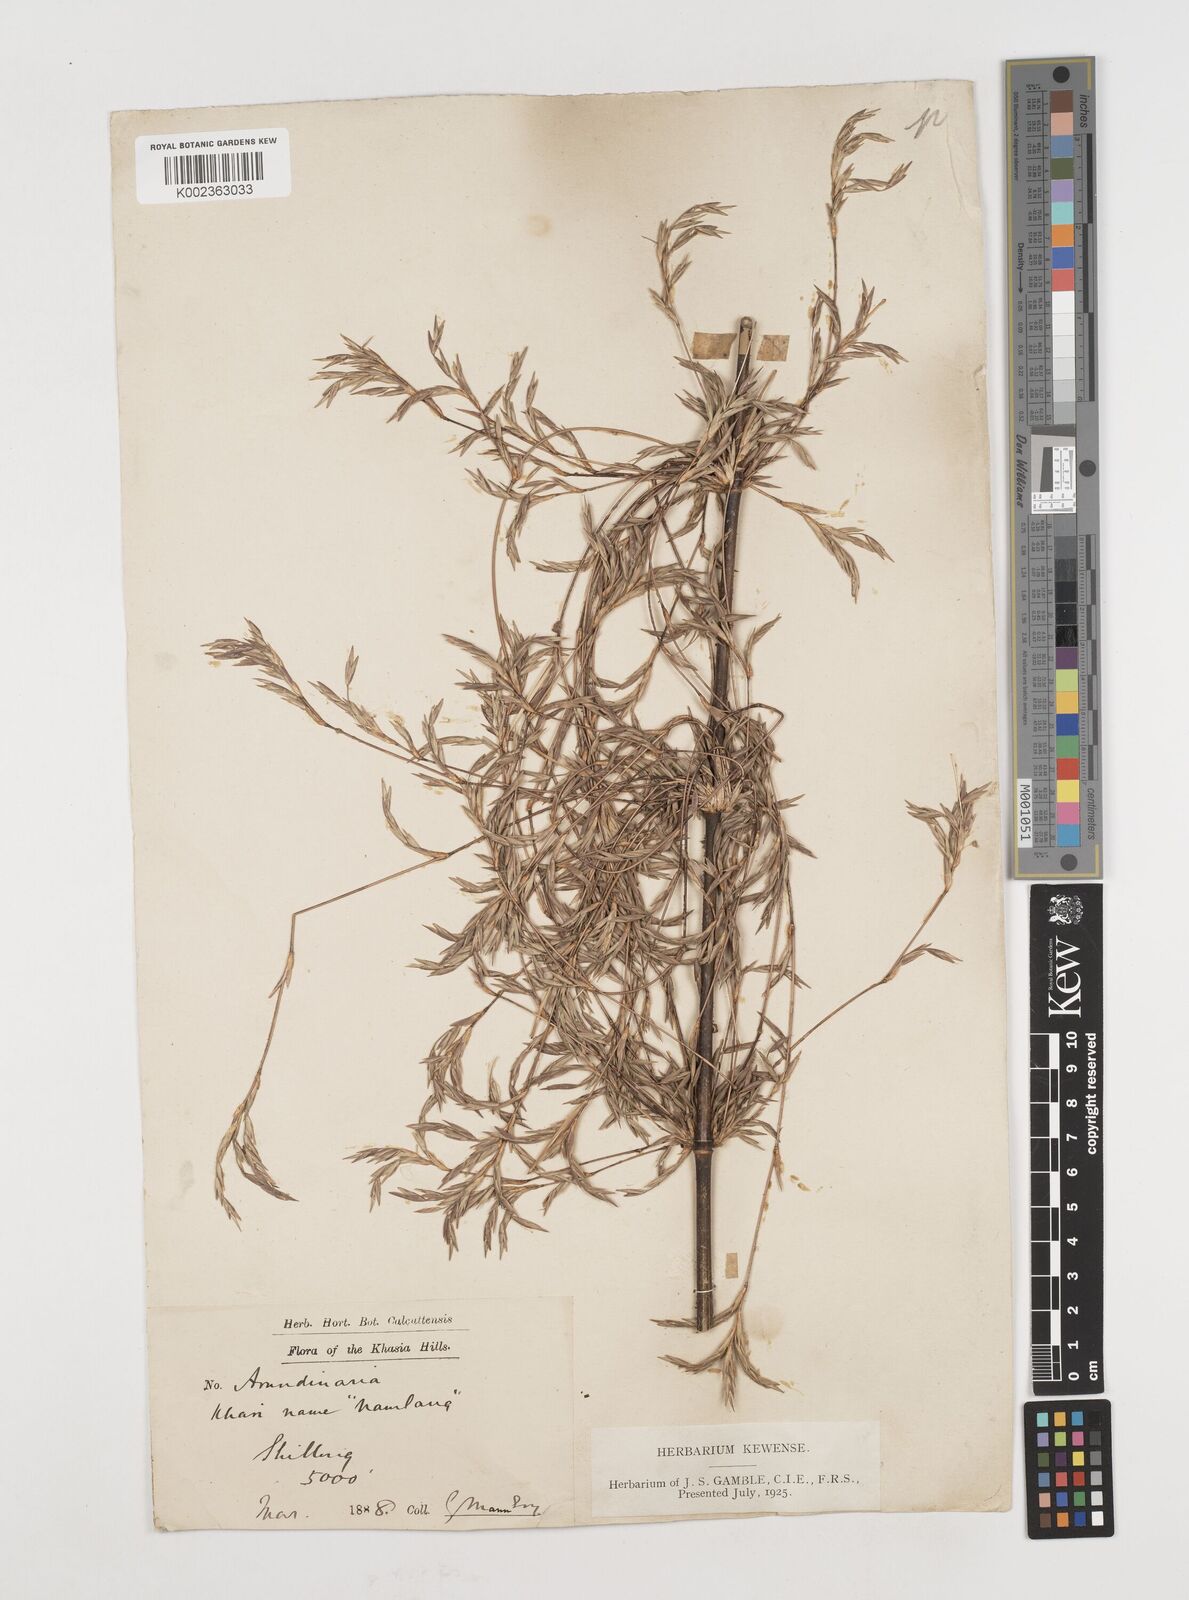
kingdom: Plantae
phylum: Tracheophyta
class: Liliopsida
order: Poales
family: Poaceae
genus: Drepanostachyum
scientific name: Drepanostachyum khasianum
